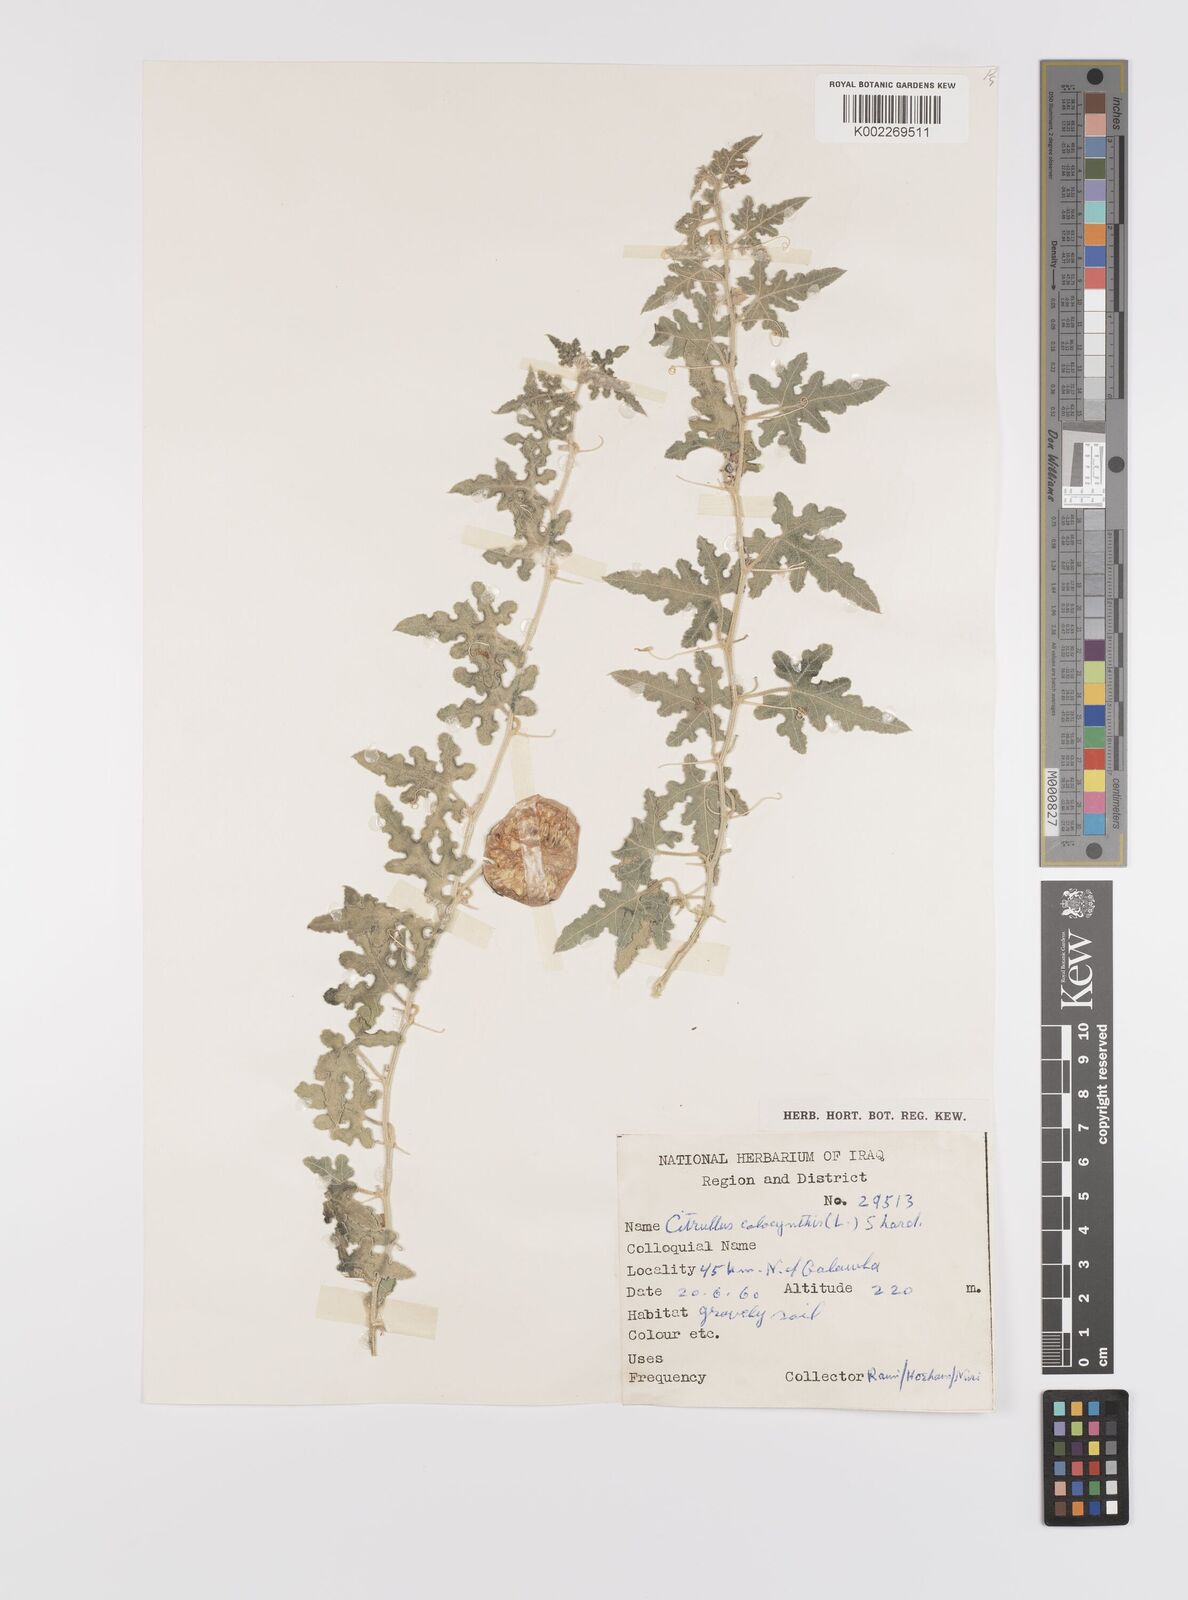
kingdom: Plantae
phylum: Tracheophyta
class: Magnoliopsida
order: Cucurbitales
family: Cucurbitaceae
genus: Citrullus
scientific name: Citrullus colocynthis
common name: Colocynth
